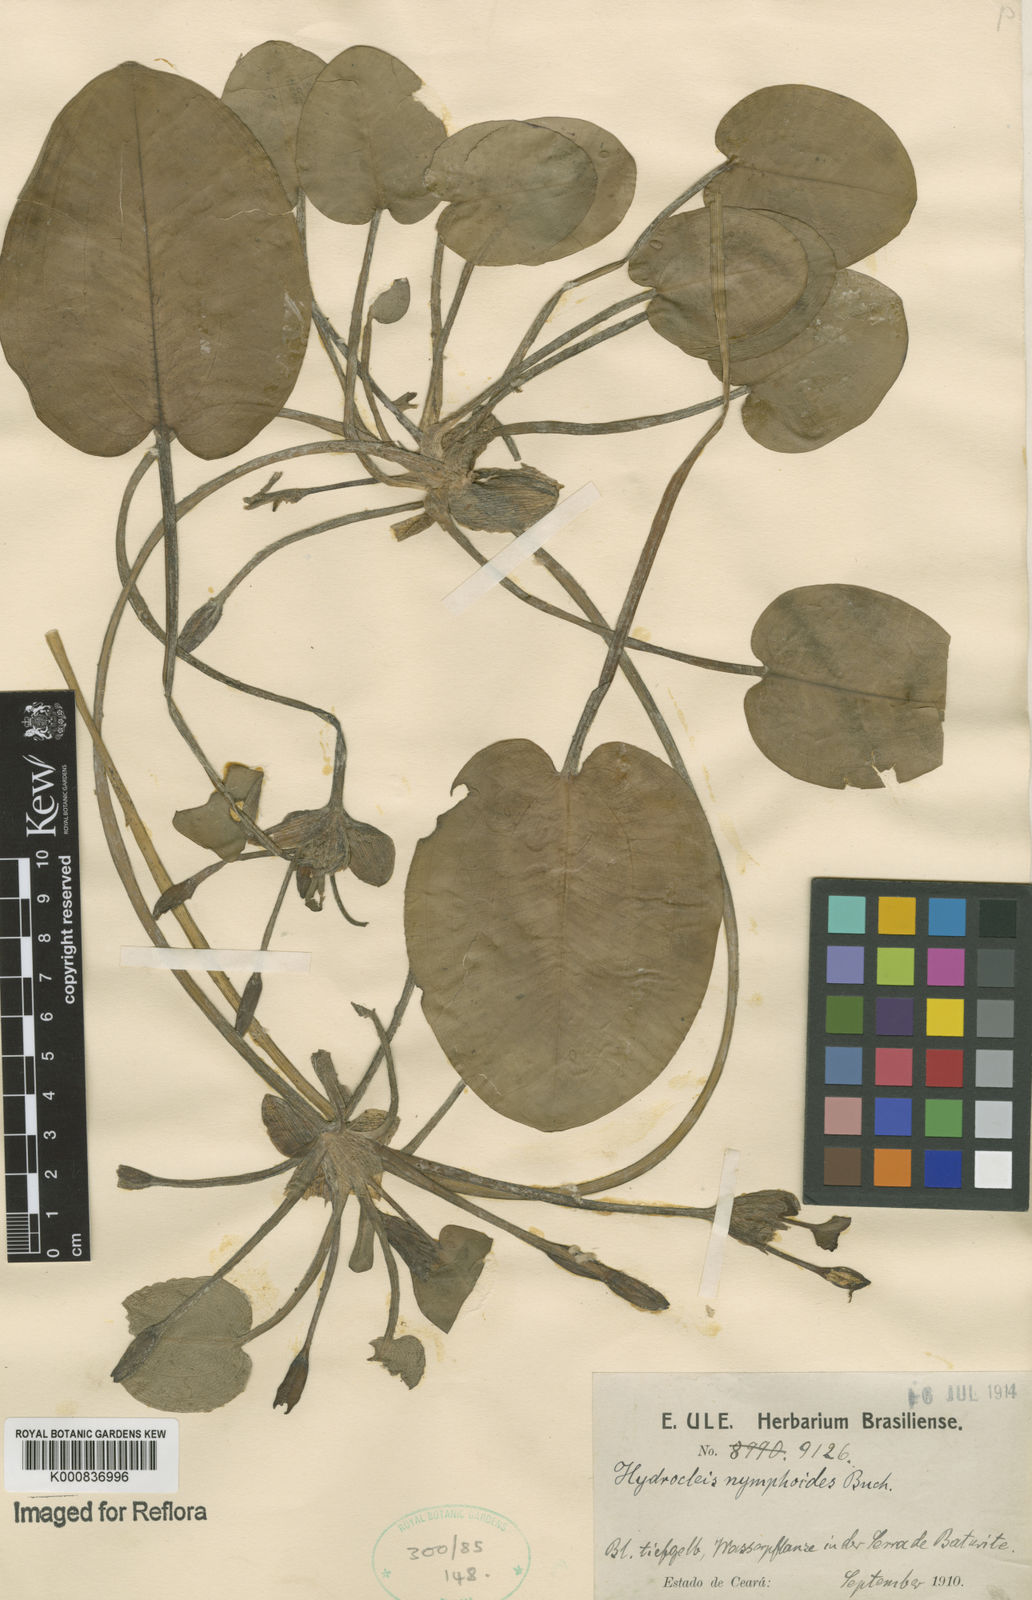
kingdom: Plantae
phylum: Tracheophyta
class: Liliopsida
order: Alismatales
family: Alismataceae
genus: Hydrocleys
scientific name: Hydrocleys nymphoides
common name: Water-poppy
